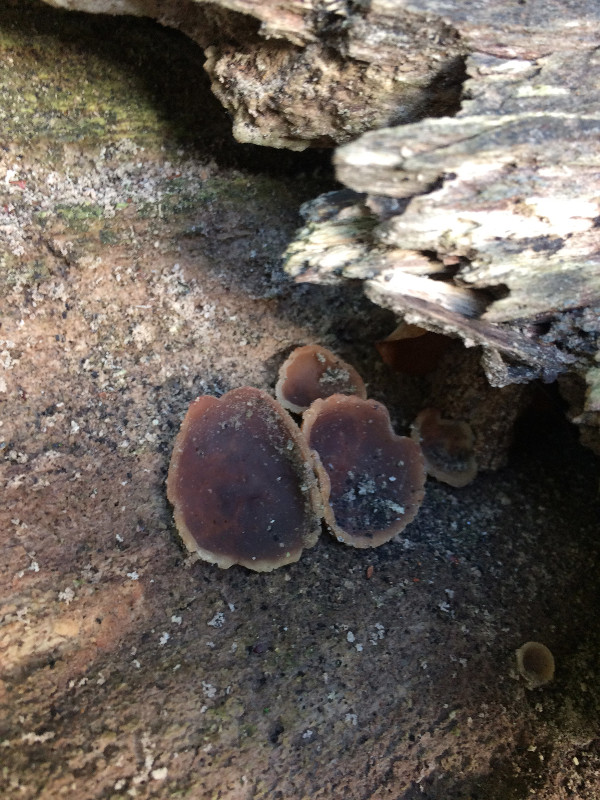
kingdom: Fungi
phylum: Ascomycota
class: Pezizomycetes
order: Pezizales
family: Pezizaceae
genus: Peziza
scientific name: Peziza varia
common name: Ved-bægersvamp
